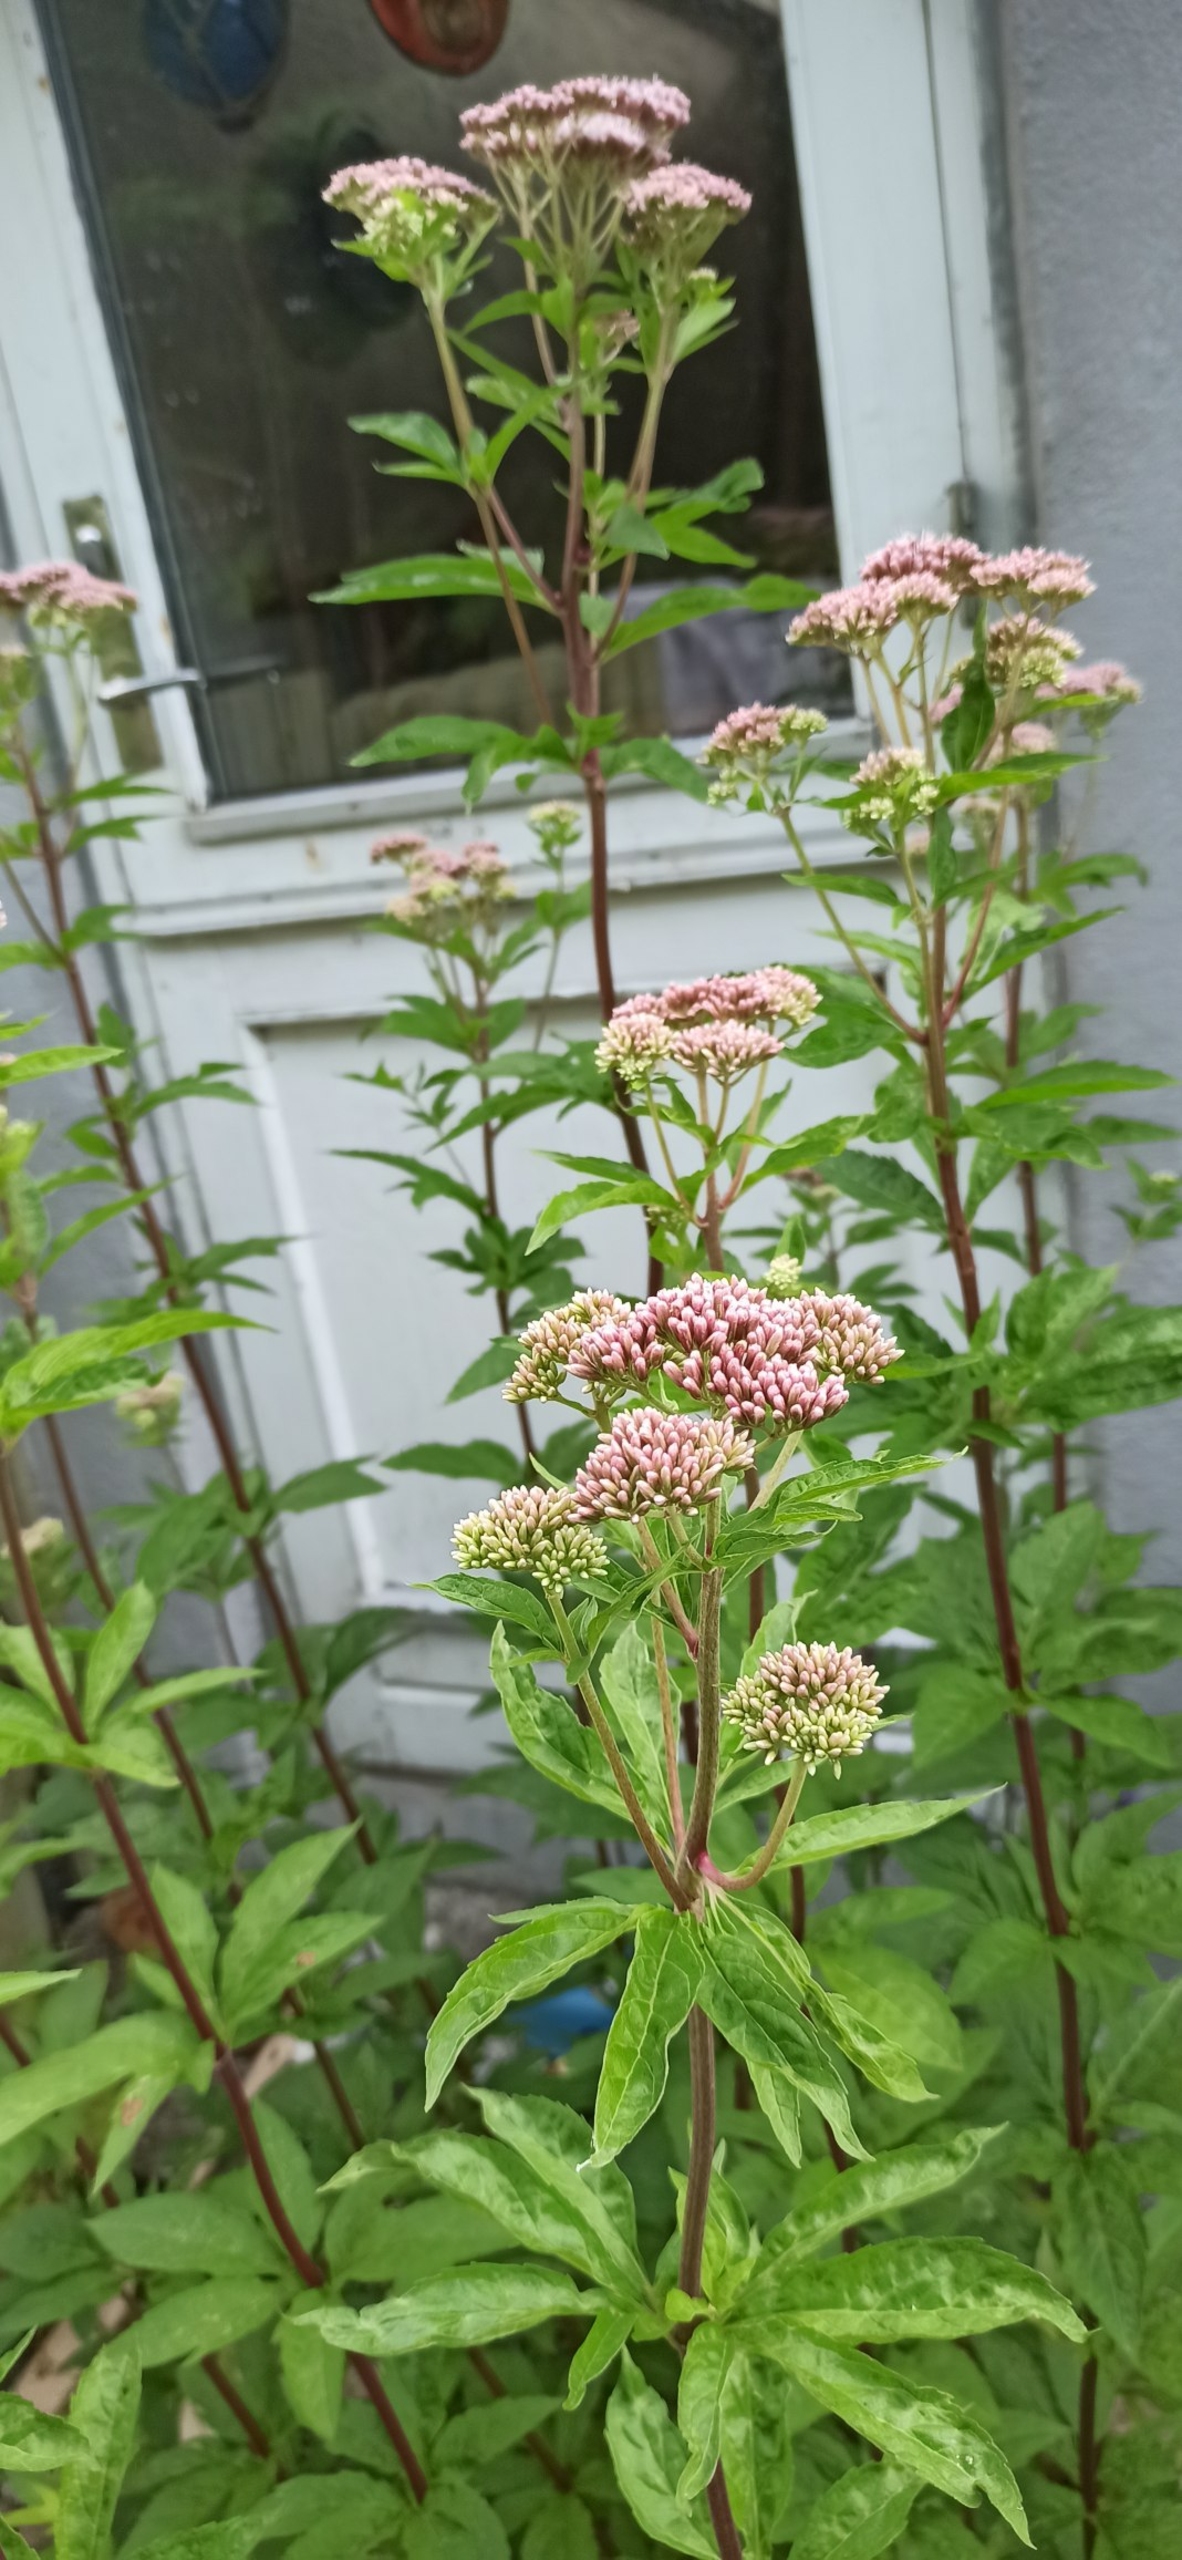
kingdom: Plantae
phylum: Tracheophyta
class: Magnoliopsida
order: Asterales
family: Asteraceae
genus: Eupatorium
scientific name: Eupatorium cannabinum
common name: Hjortetrøst
